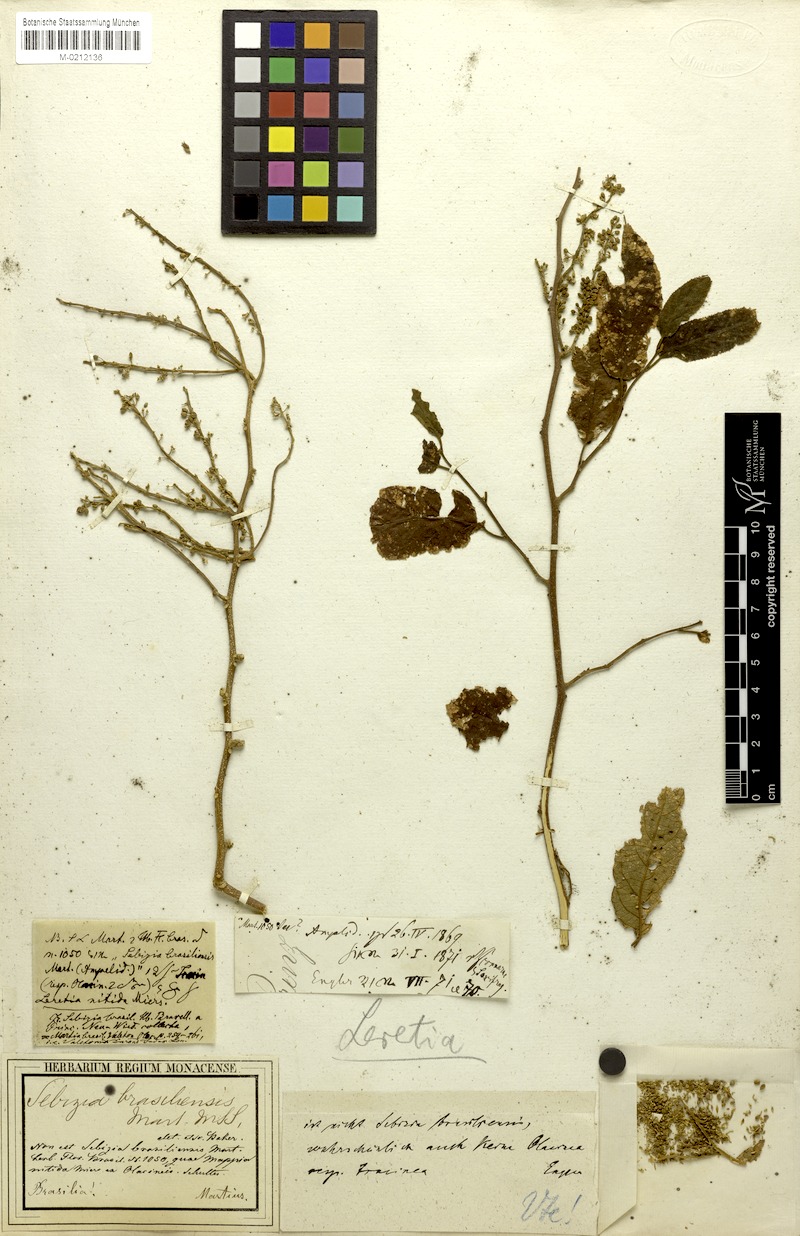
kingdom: Plantae
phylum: Tracheophyta
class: Magnoliopsida
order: Icacinales
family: Icacinaceae
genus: Leretia
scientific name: Leretia cordata
